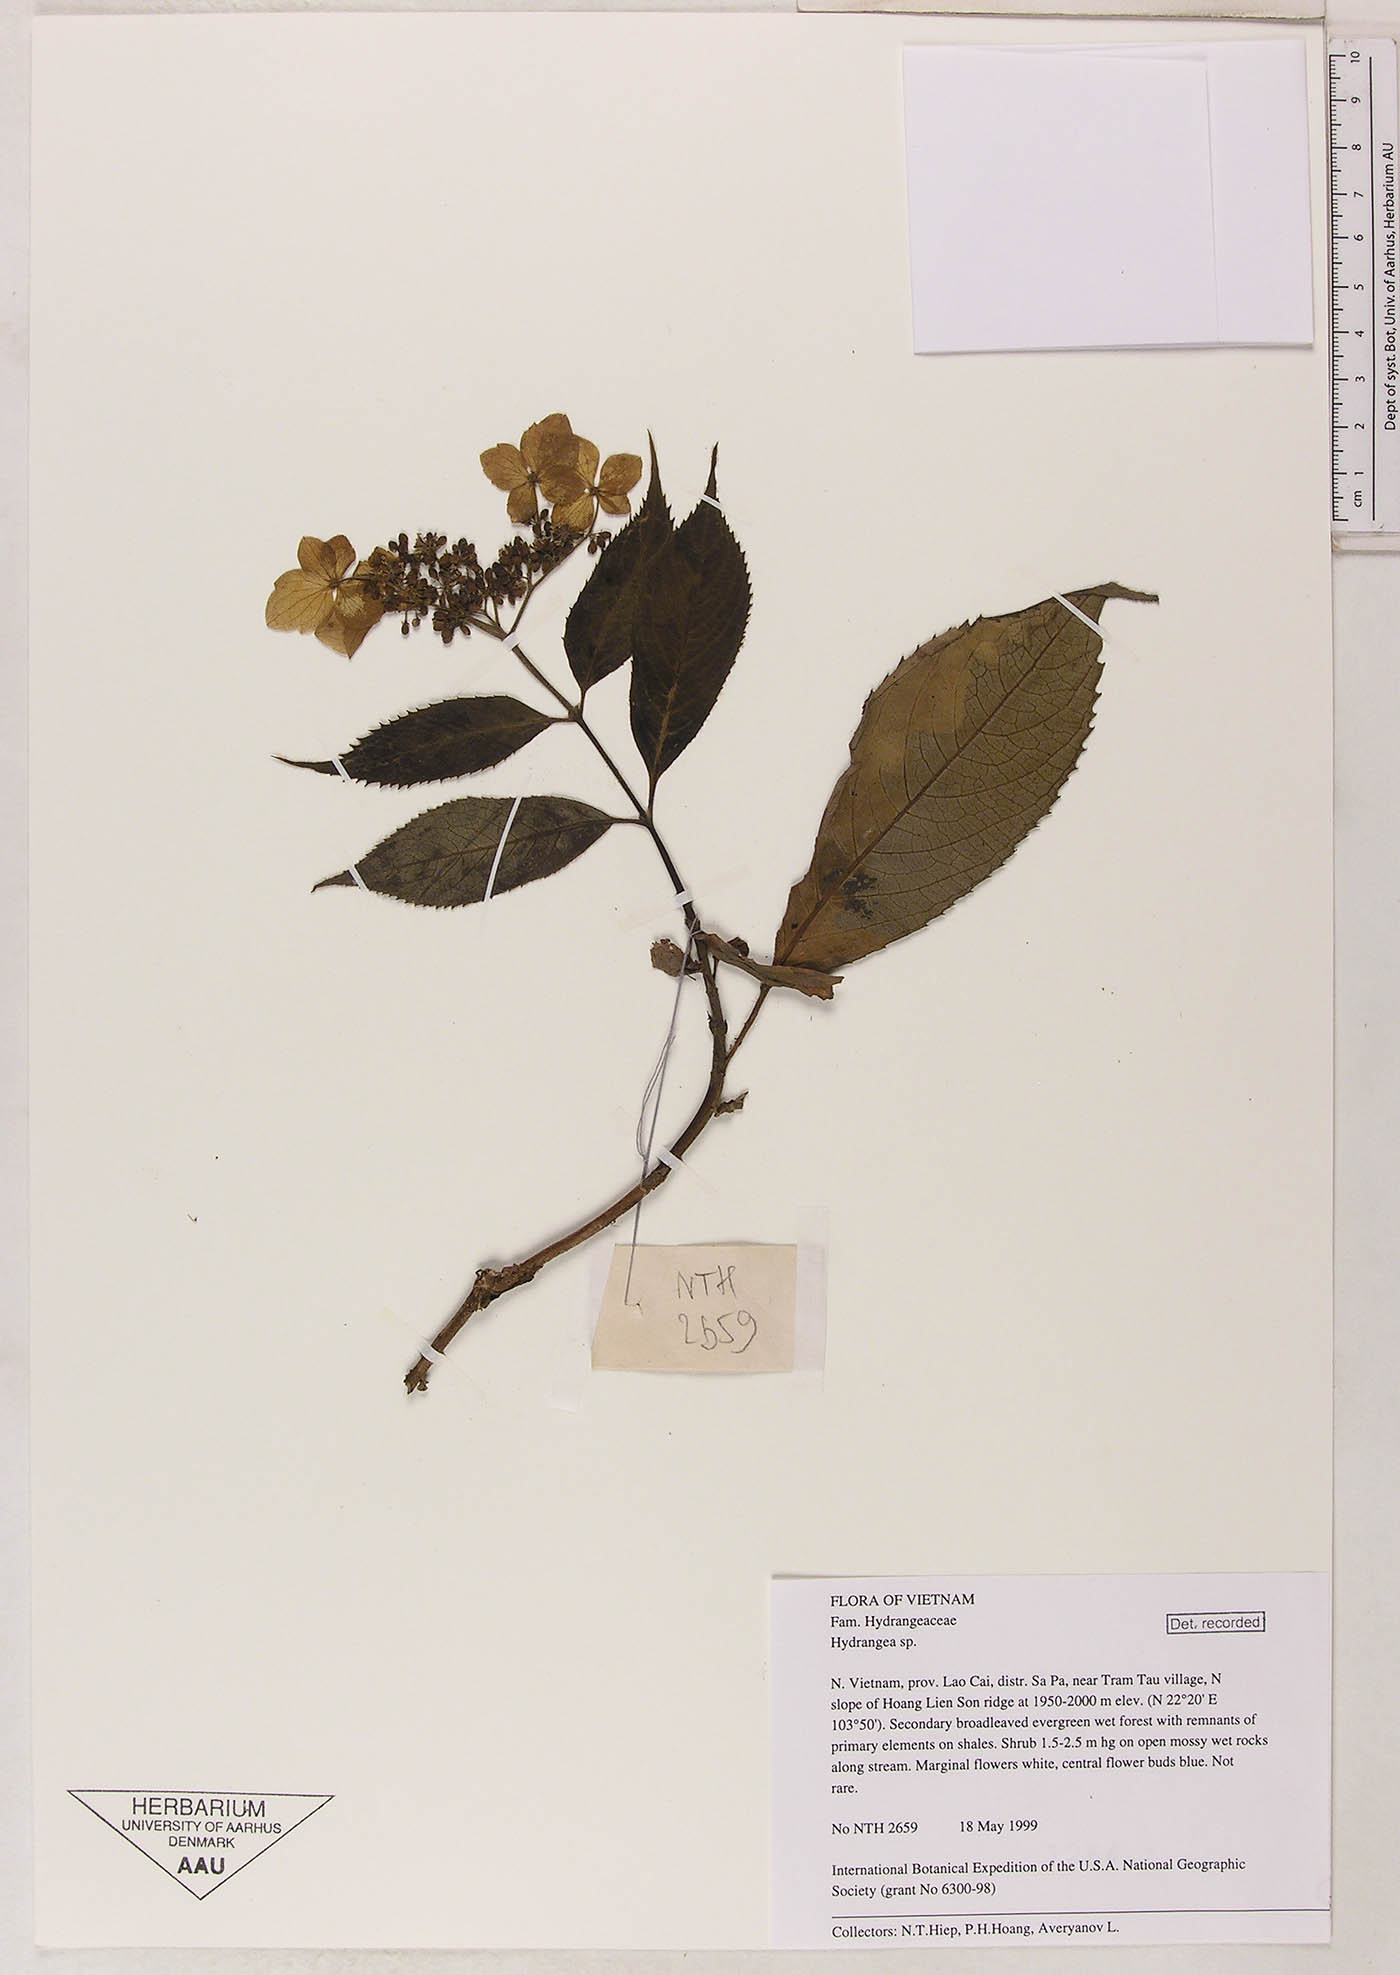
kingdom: Plantae
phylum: Tracheophyta
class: Magnoliopsida
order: Cornales
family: Hydrangeaceae
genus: Hydrangea
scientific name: Hydrangea
